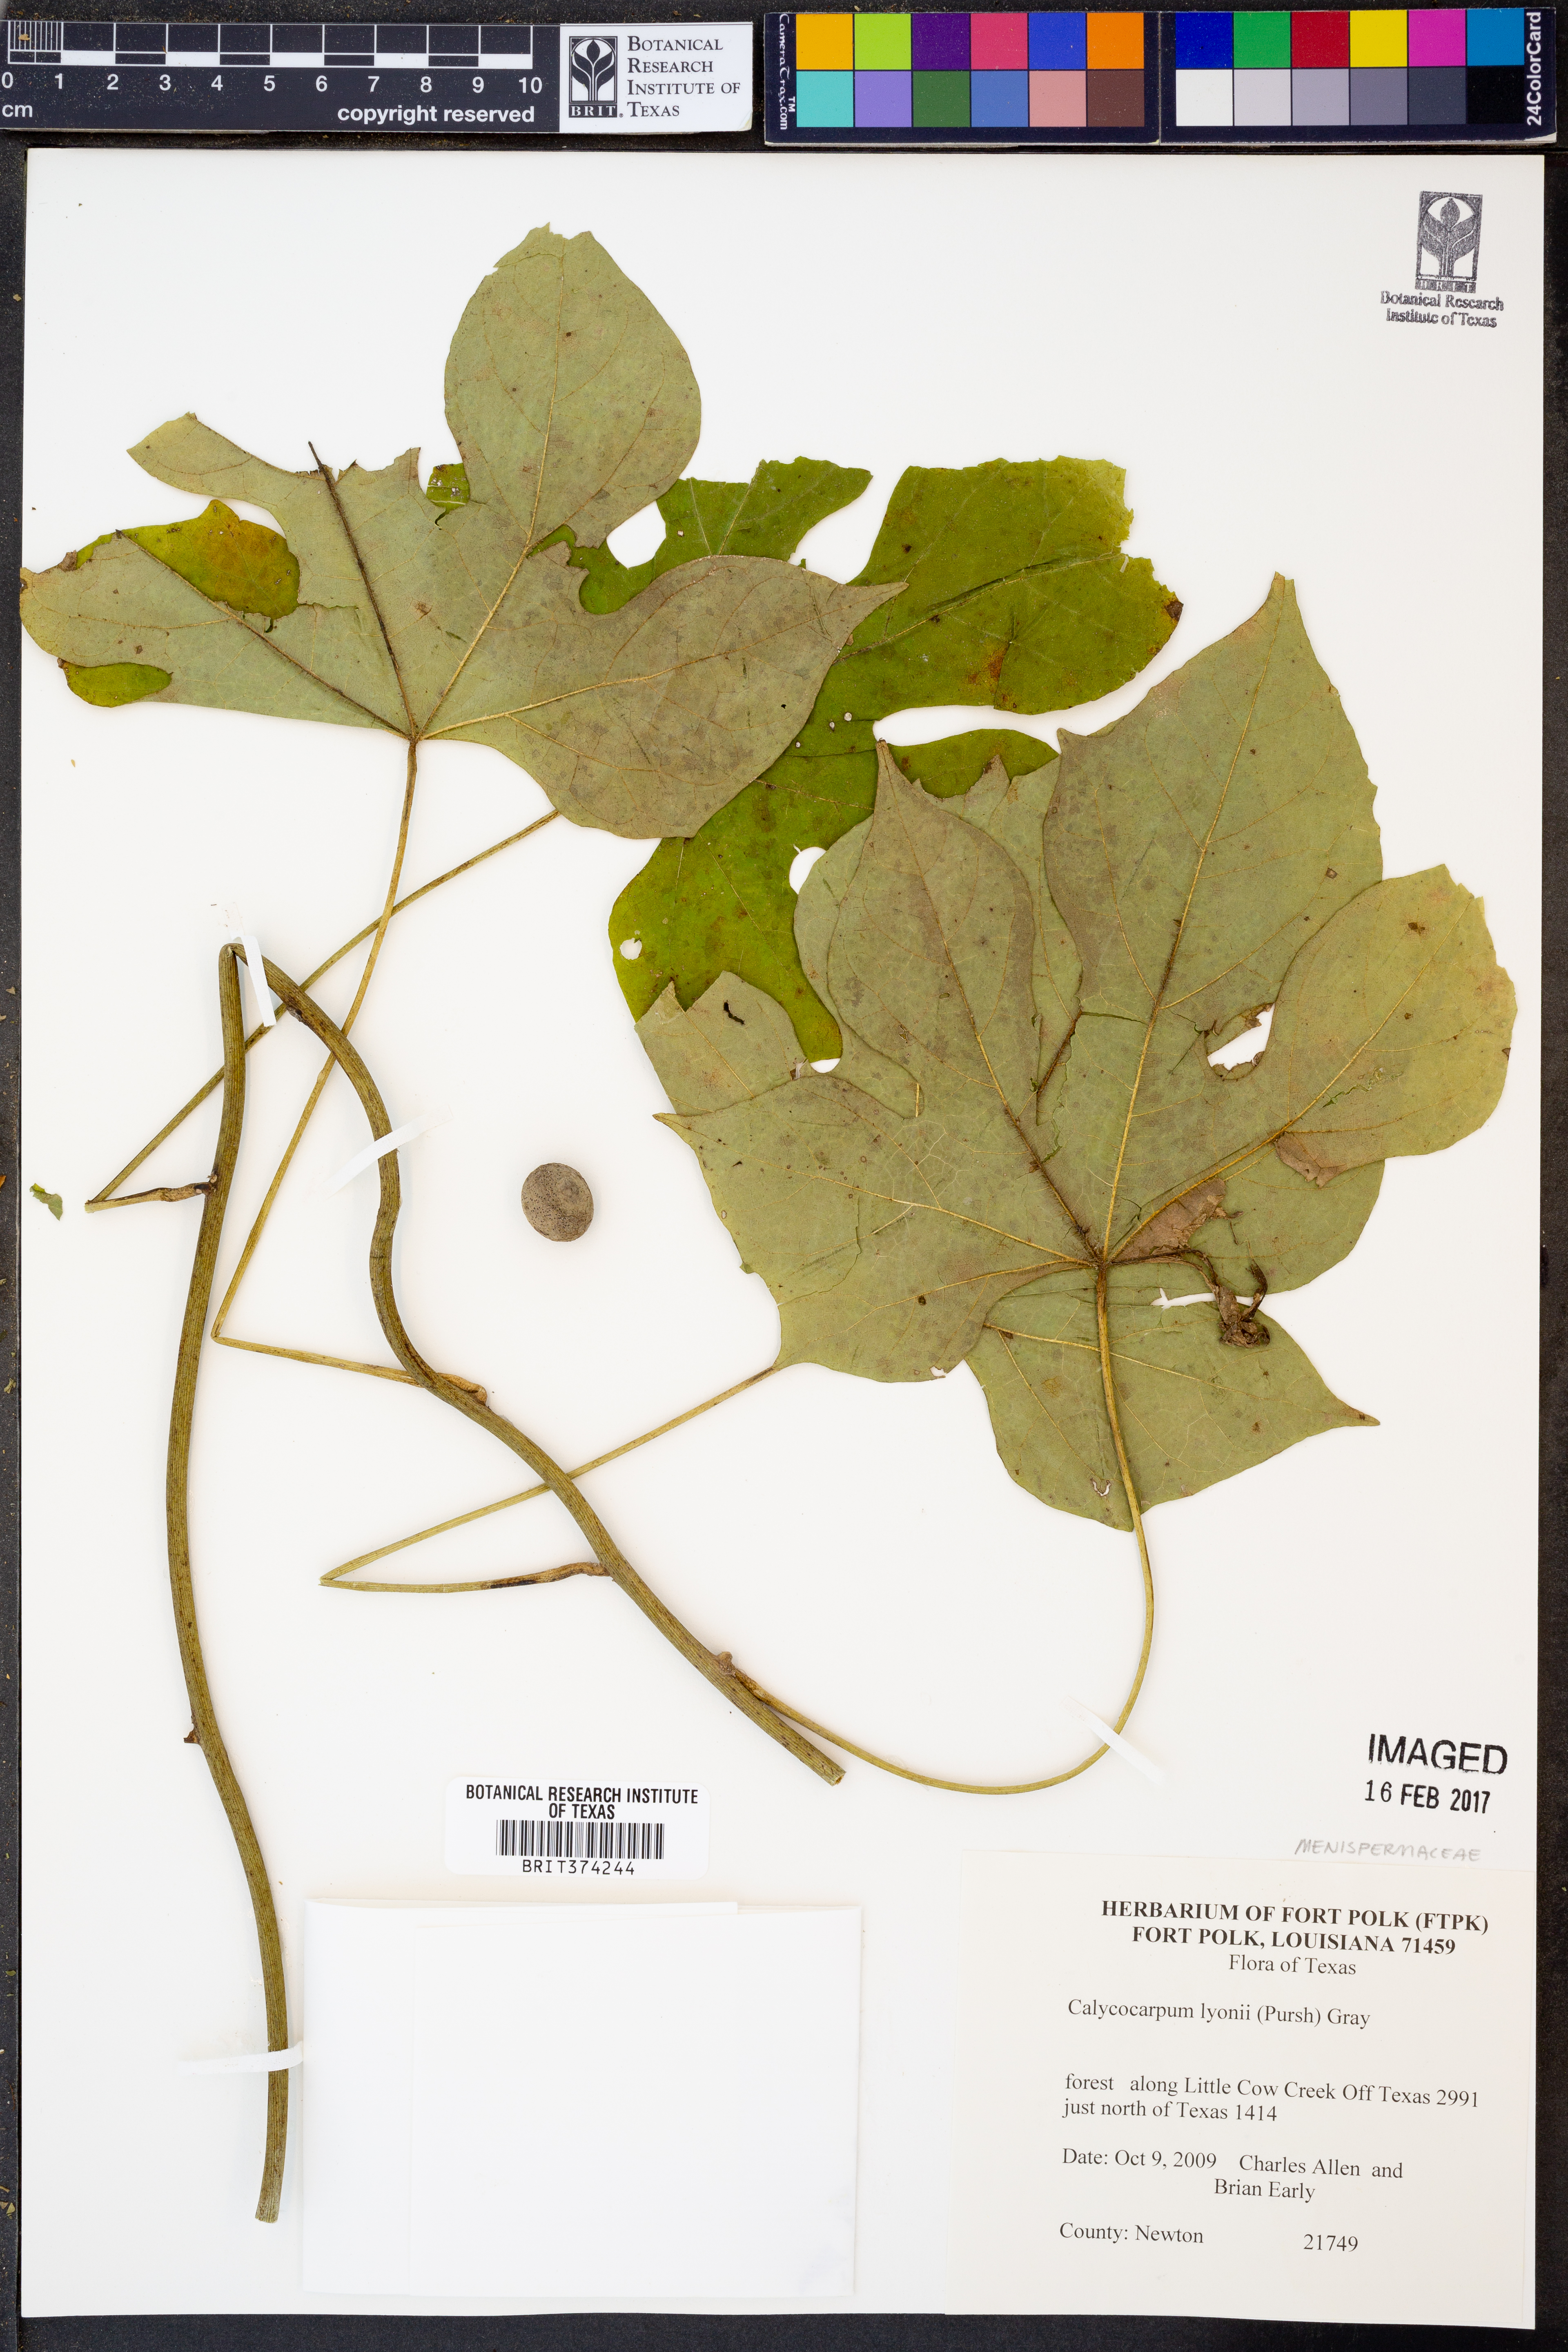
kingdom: Plantae
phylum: Tracheophyta
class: Magnoliopsida
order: Ranunculales
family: Menispermaceae
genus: Calycocarpum
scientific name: Calycocarpum lyonii
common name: Cupseed
